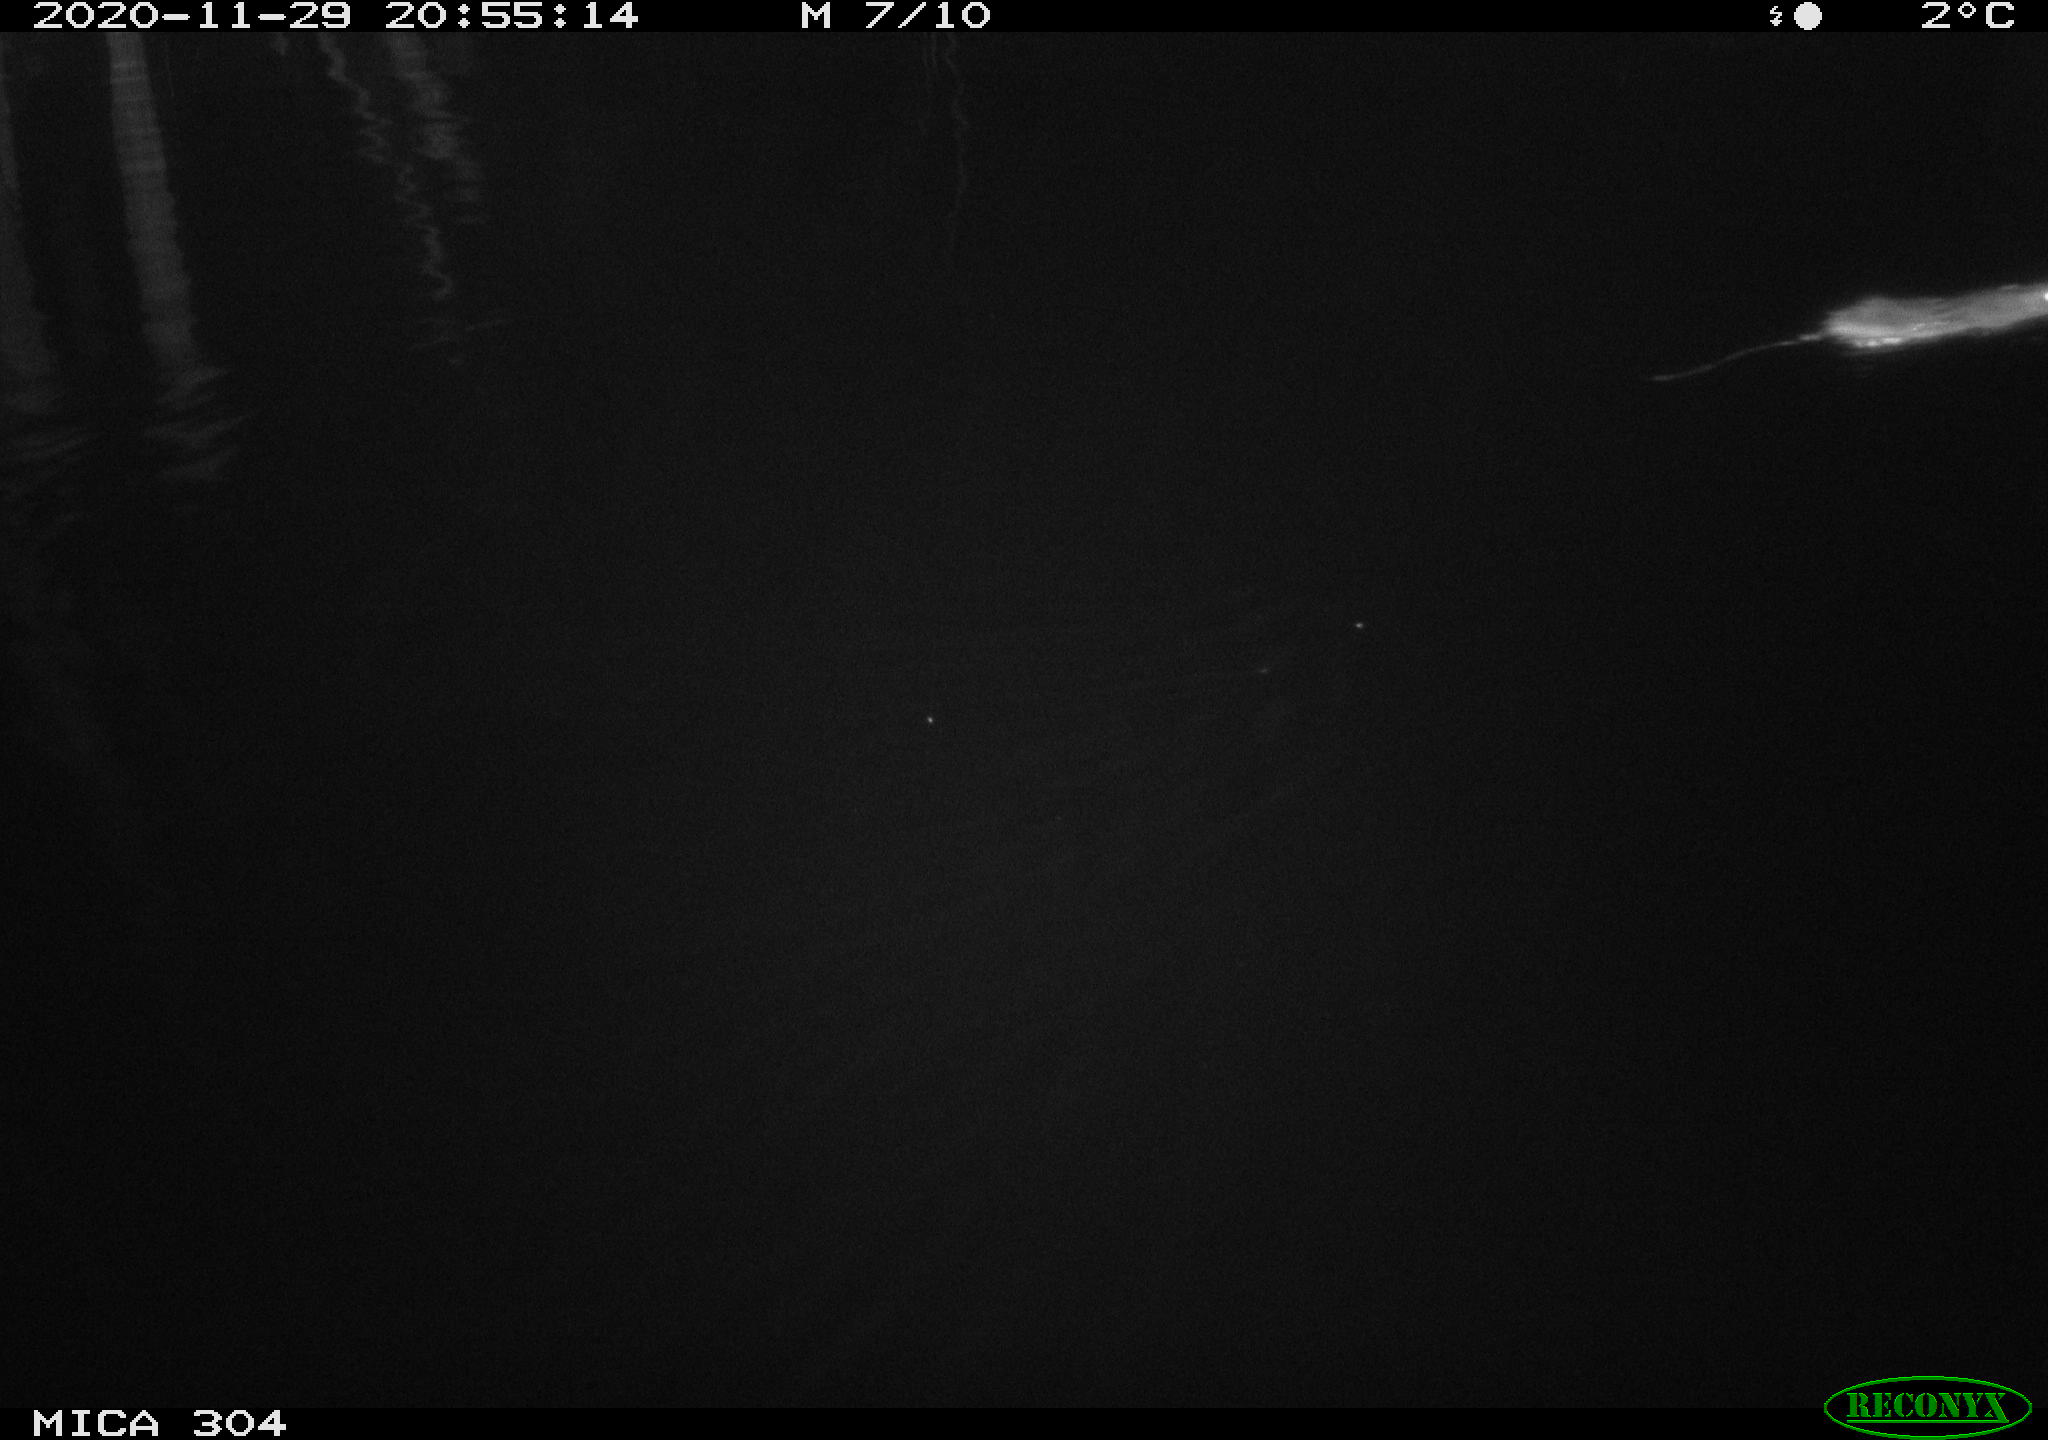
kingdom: Animalia
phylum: Chordata
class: Mammalia
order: Rodentia
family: Muridae
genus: Rattus
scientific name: Rattus norvegicus
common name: Brown rat
